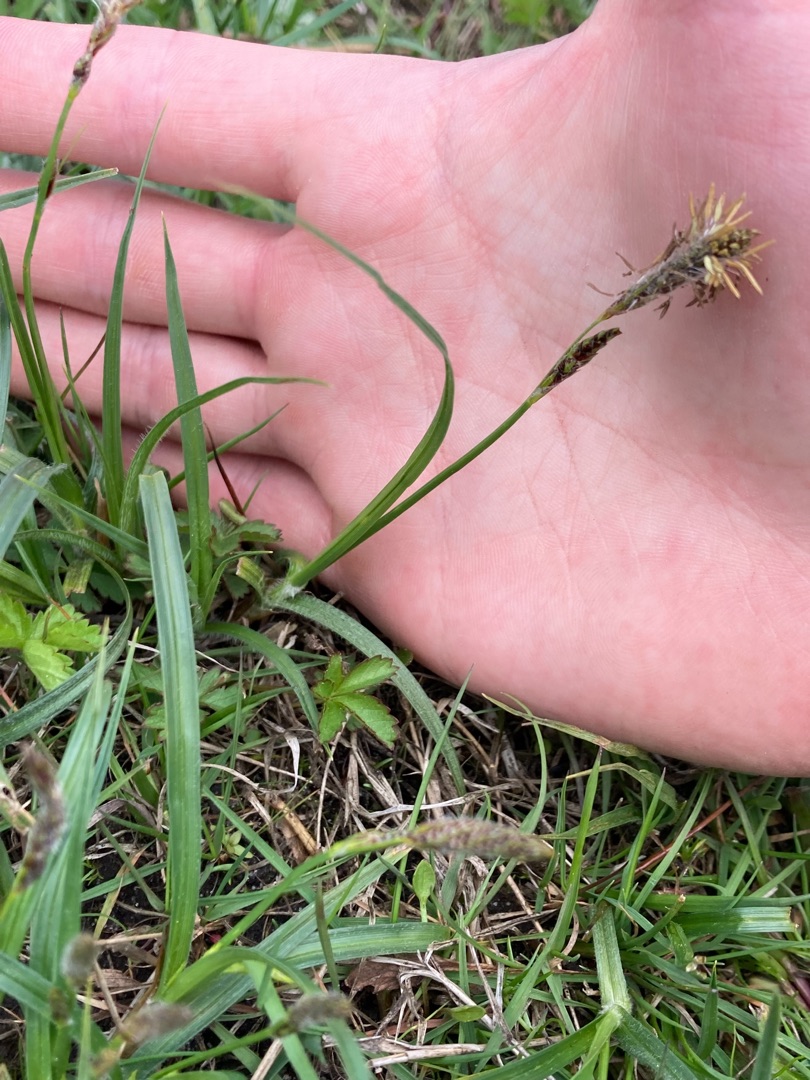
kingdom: Plantae
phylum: Tracheophyta
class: Liliopsida
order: Poales
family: Cyperaceae
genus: Carex
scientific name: Carex hirta
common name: Håret star
